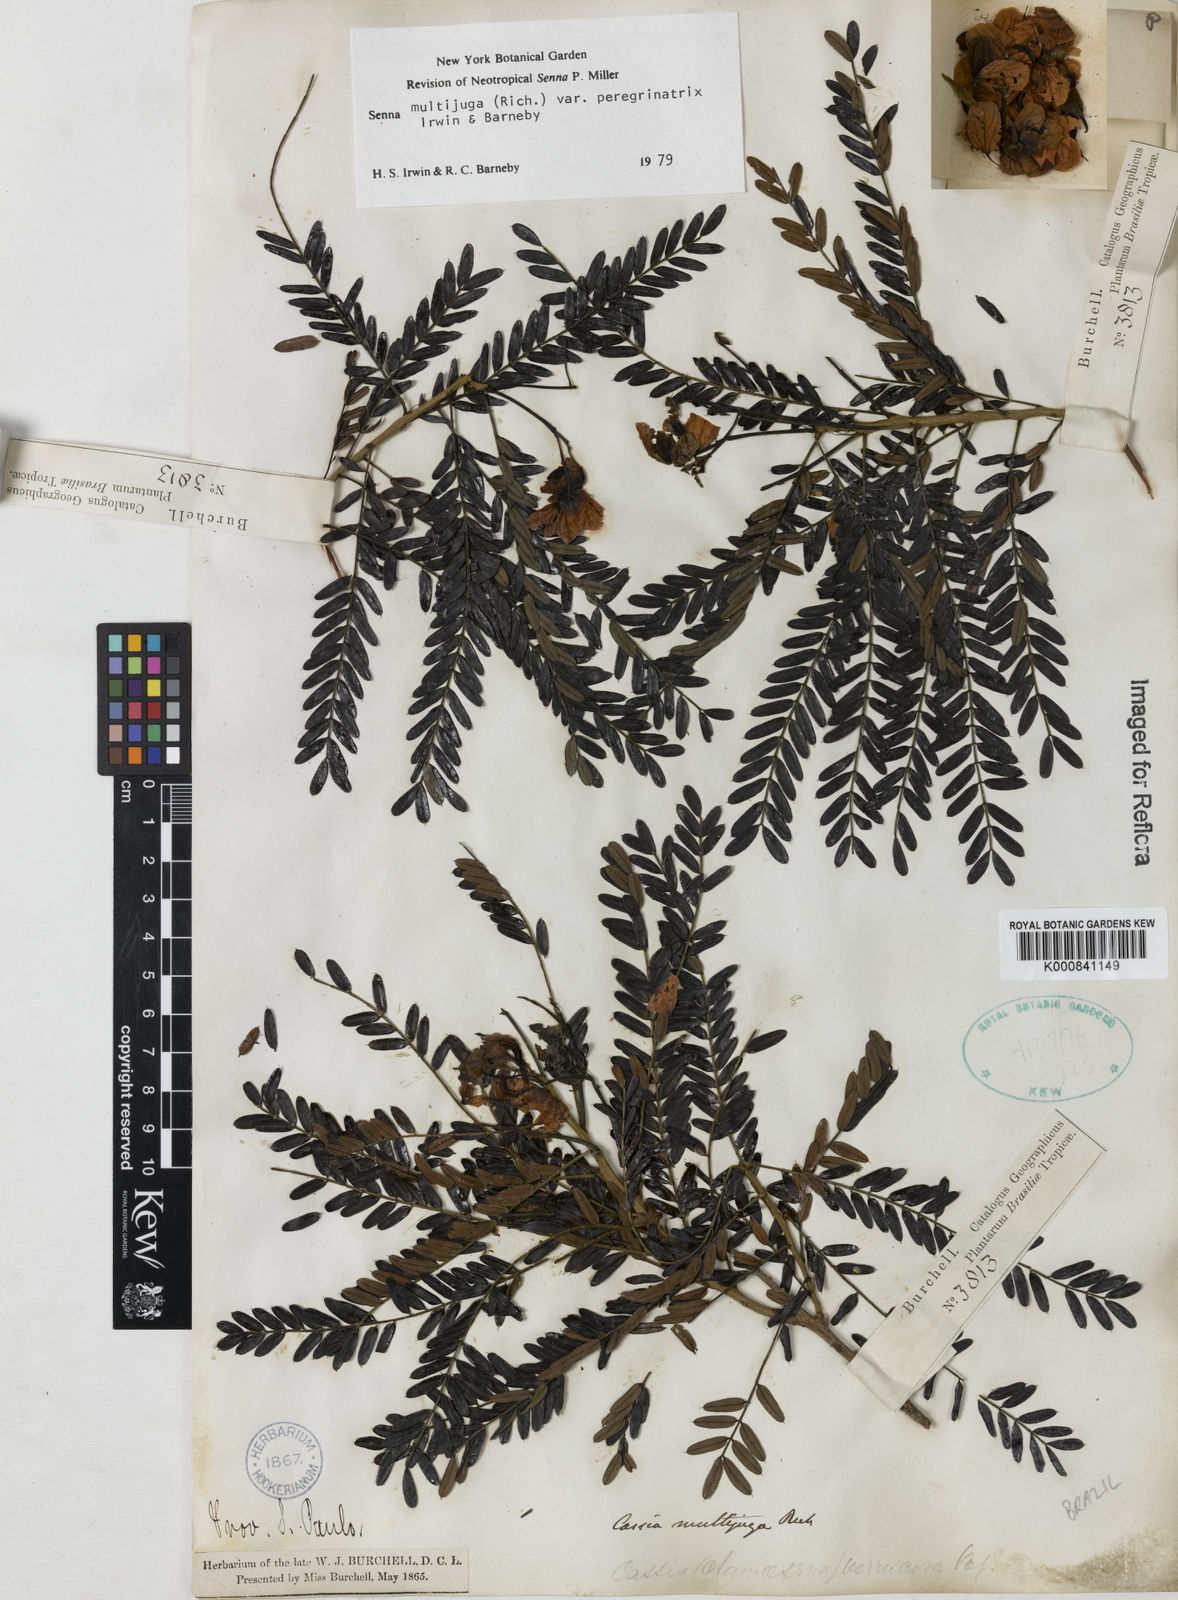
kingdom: Plantae
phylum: Tracheophyta
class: Magnoliopsida
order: Fabales
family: Fabaceae
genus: Senna
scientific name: Senna multijuga
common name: False sicklepod
